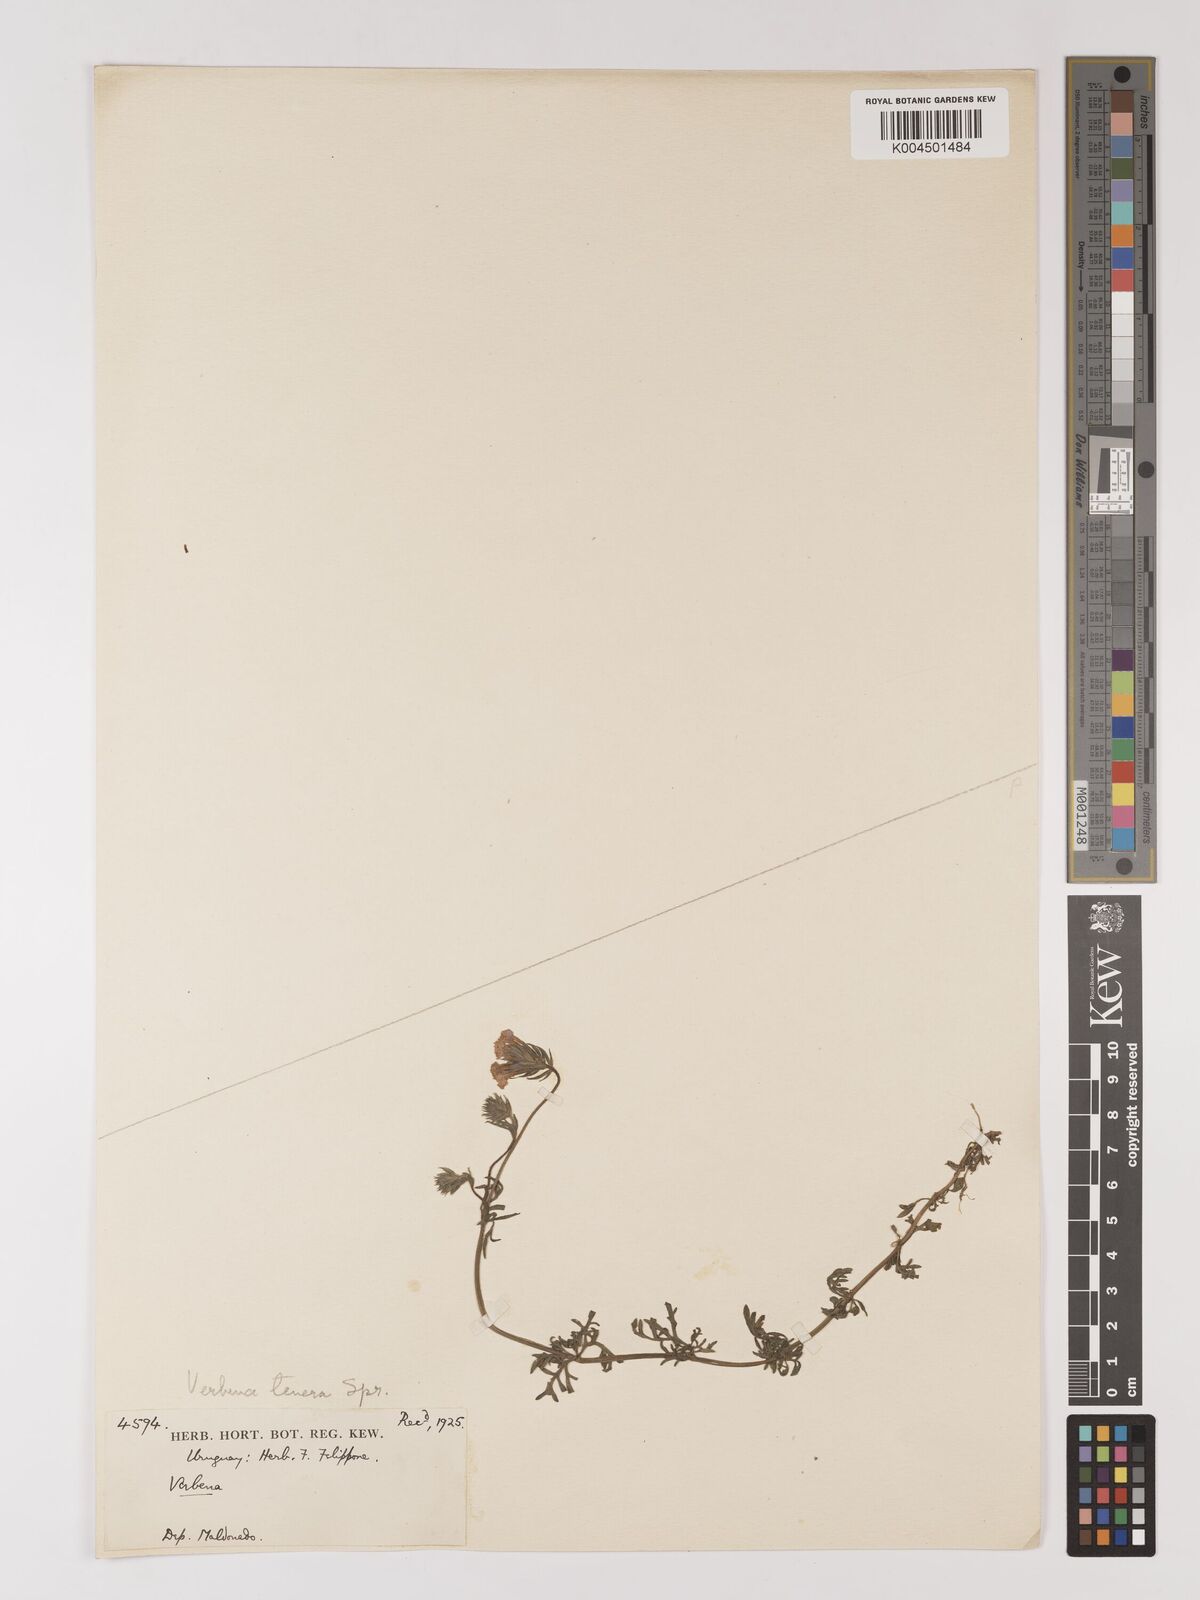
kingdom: Plantae
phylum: Tracheophyta
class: Magnoliopsida
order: Lamiales
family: Verbenaceae
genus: Verbena
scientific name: Verbena tenera
